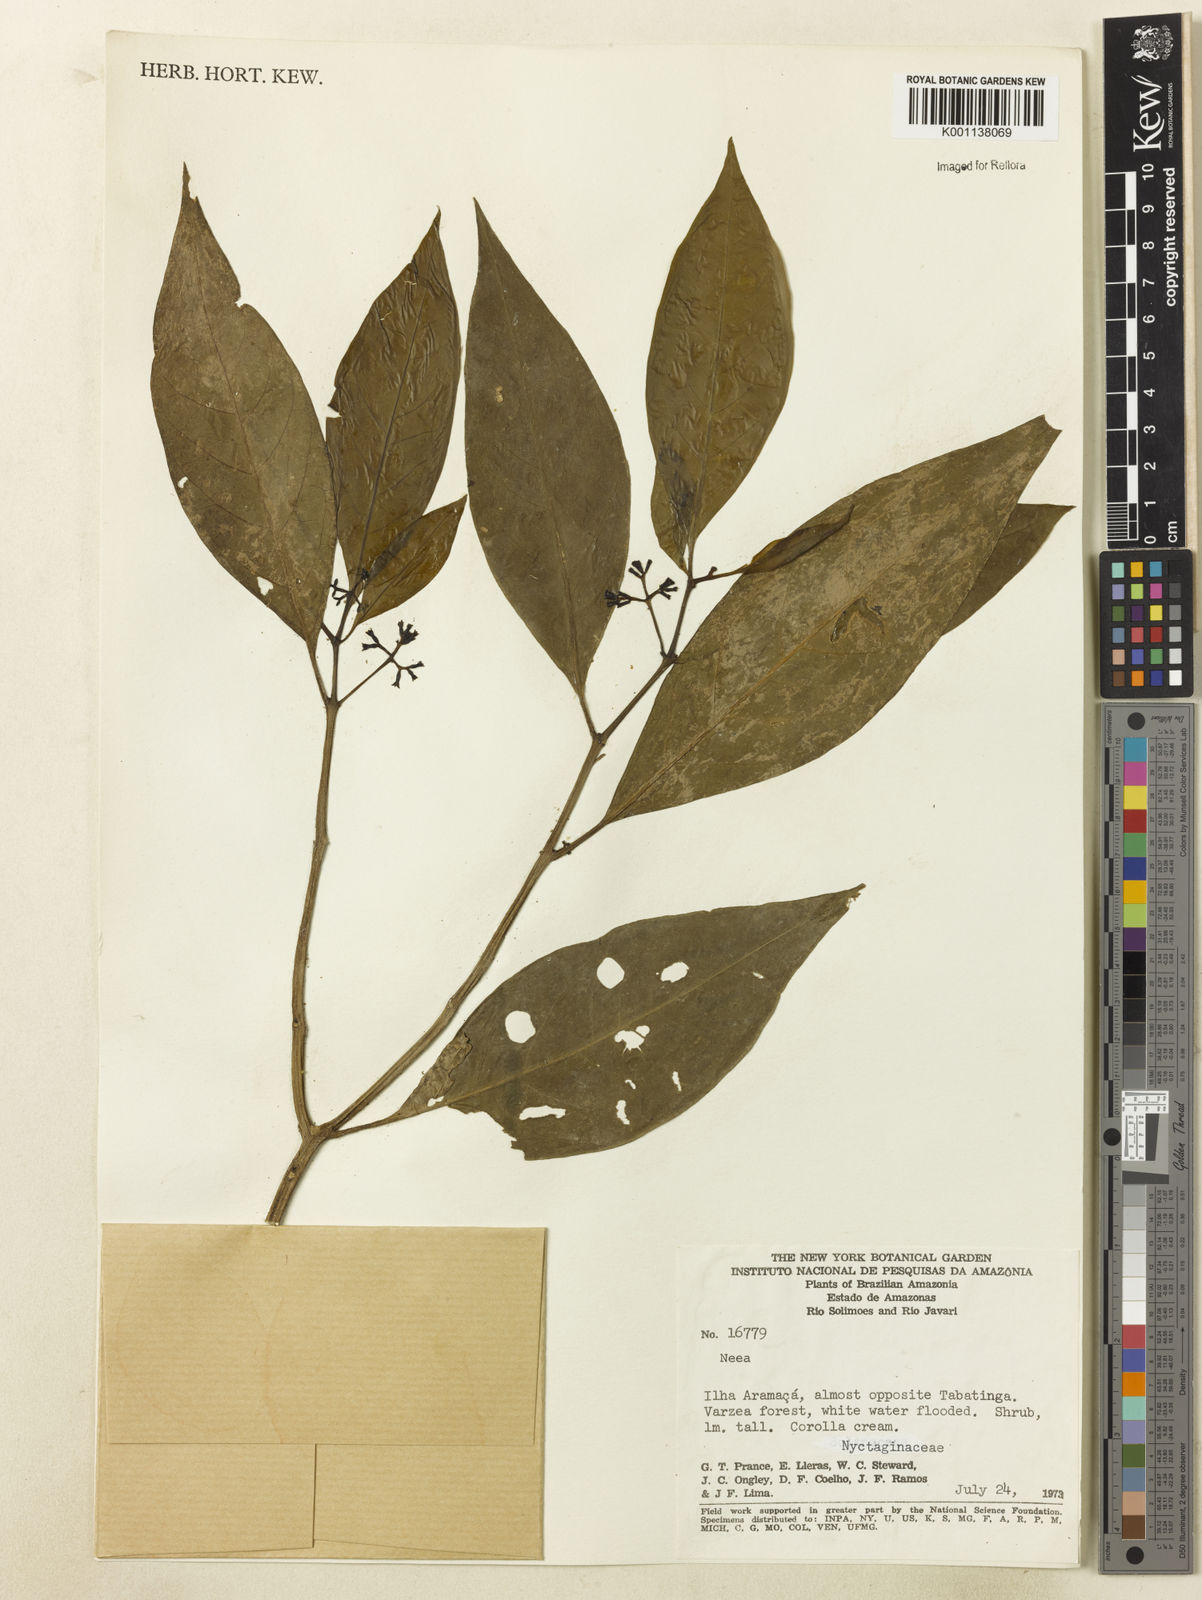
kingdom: Plantae
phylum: Tracheophyta
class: Magnoliopsida
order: Caryophyllales
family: Nyctaginaceae
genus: Neea
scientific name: Neea
